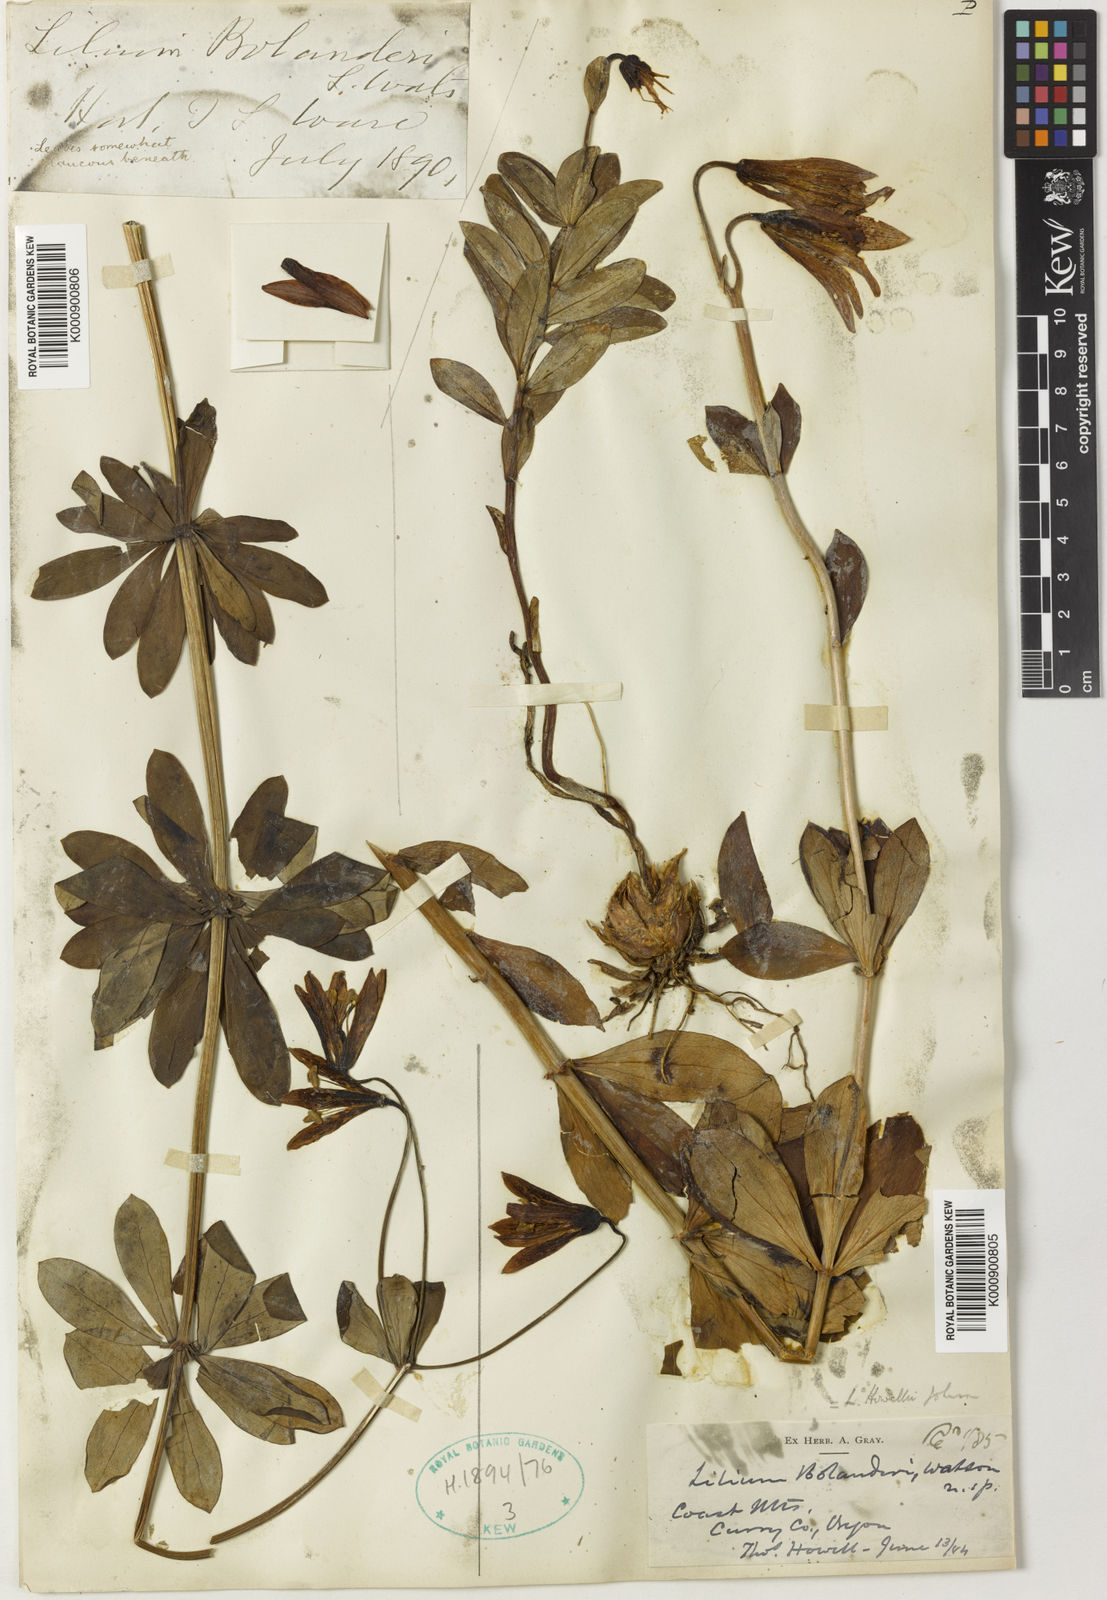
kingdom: Plantae
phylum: Tracheophyta
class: Liliopsida
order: Liliales
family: Liliaceae
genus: Lilium
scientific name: Lilium bolanderi
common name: Bolander's lily
